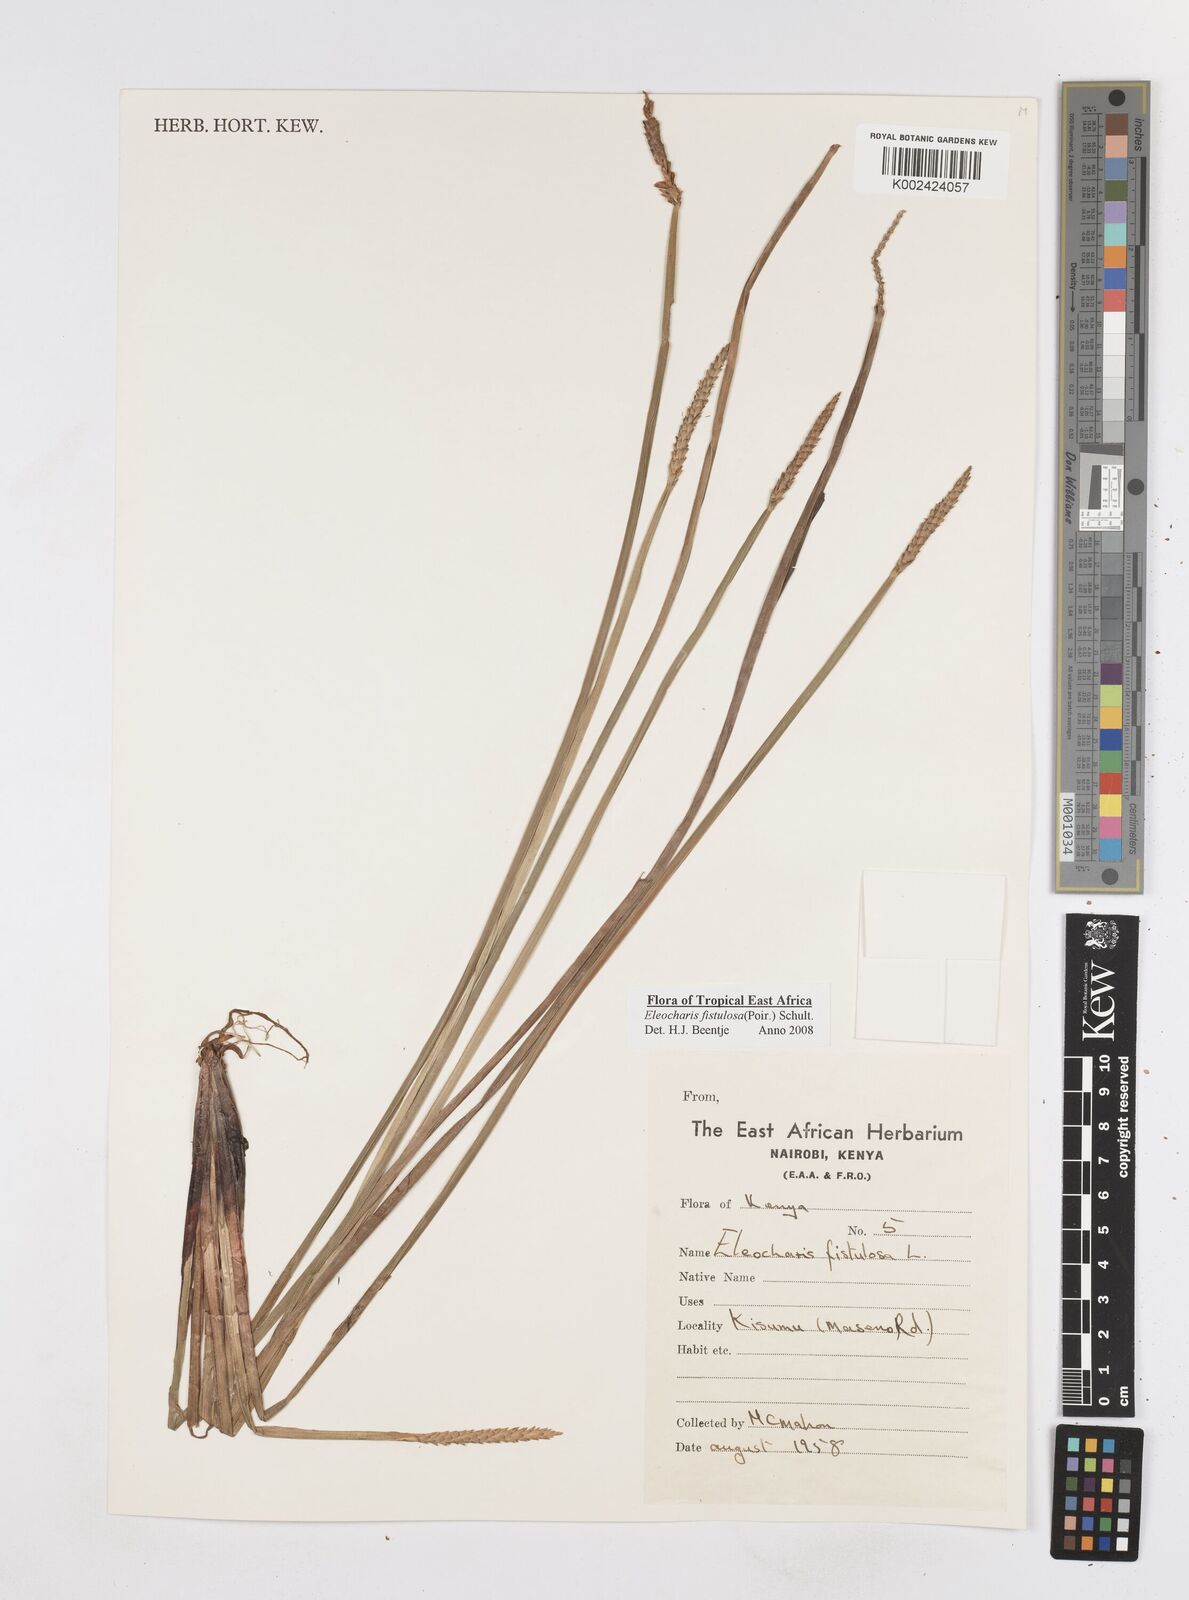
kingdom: Plantae
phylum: Tracheophyta
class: Liliopsida
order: Poales
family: Cyperaceae
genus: Eleocharis
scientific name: Eleocharis acutangula
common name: Acute spikerush
